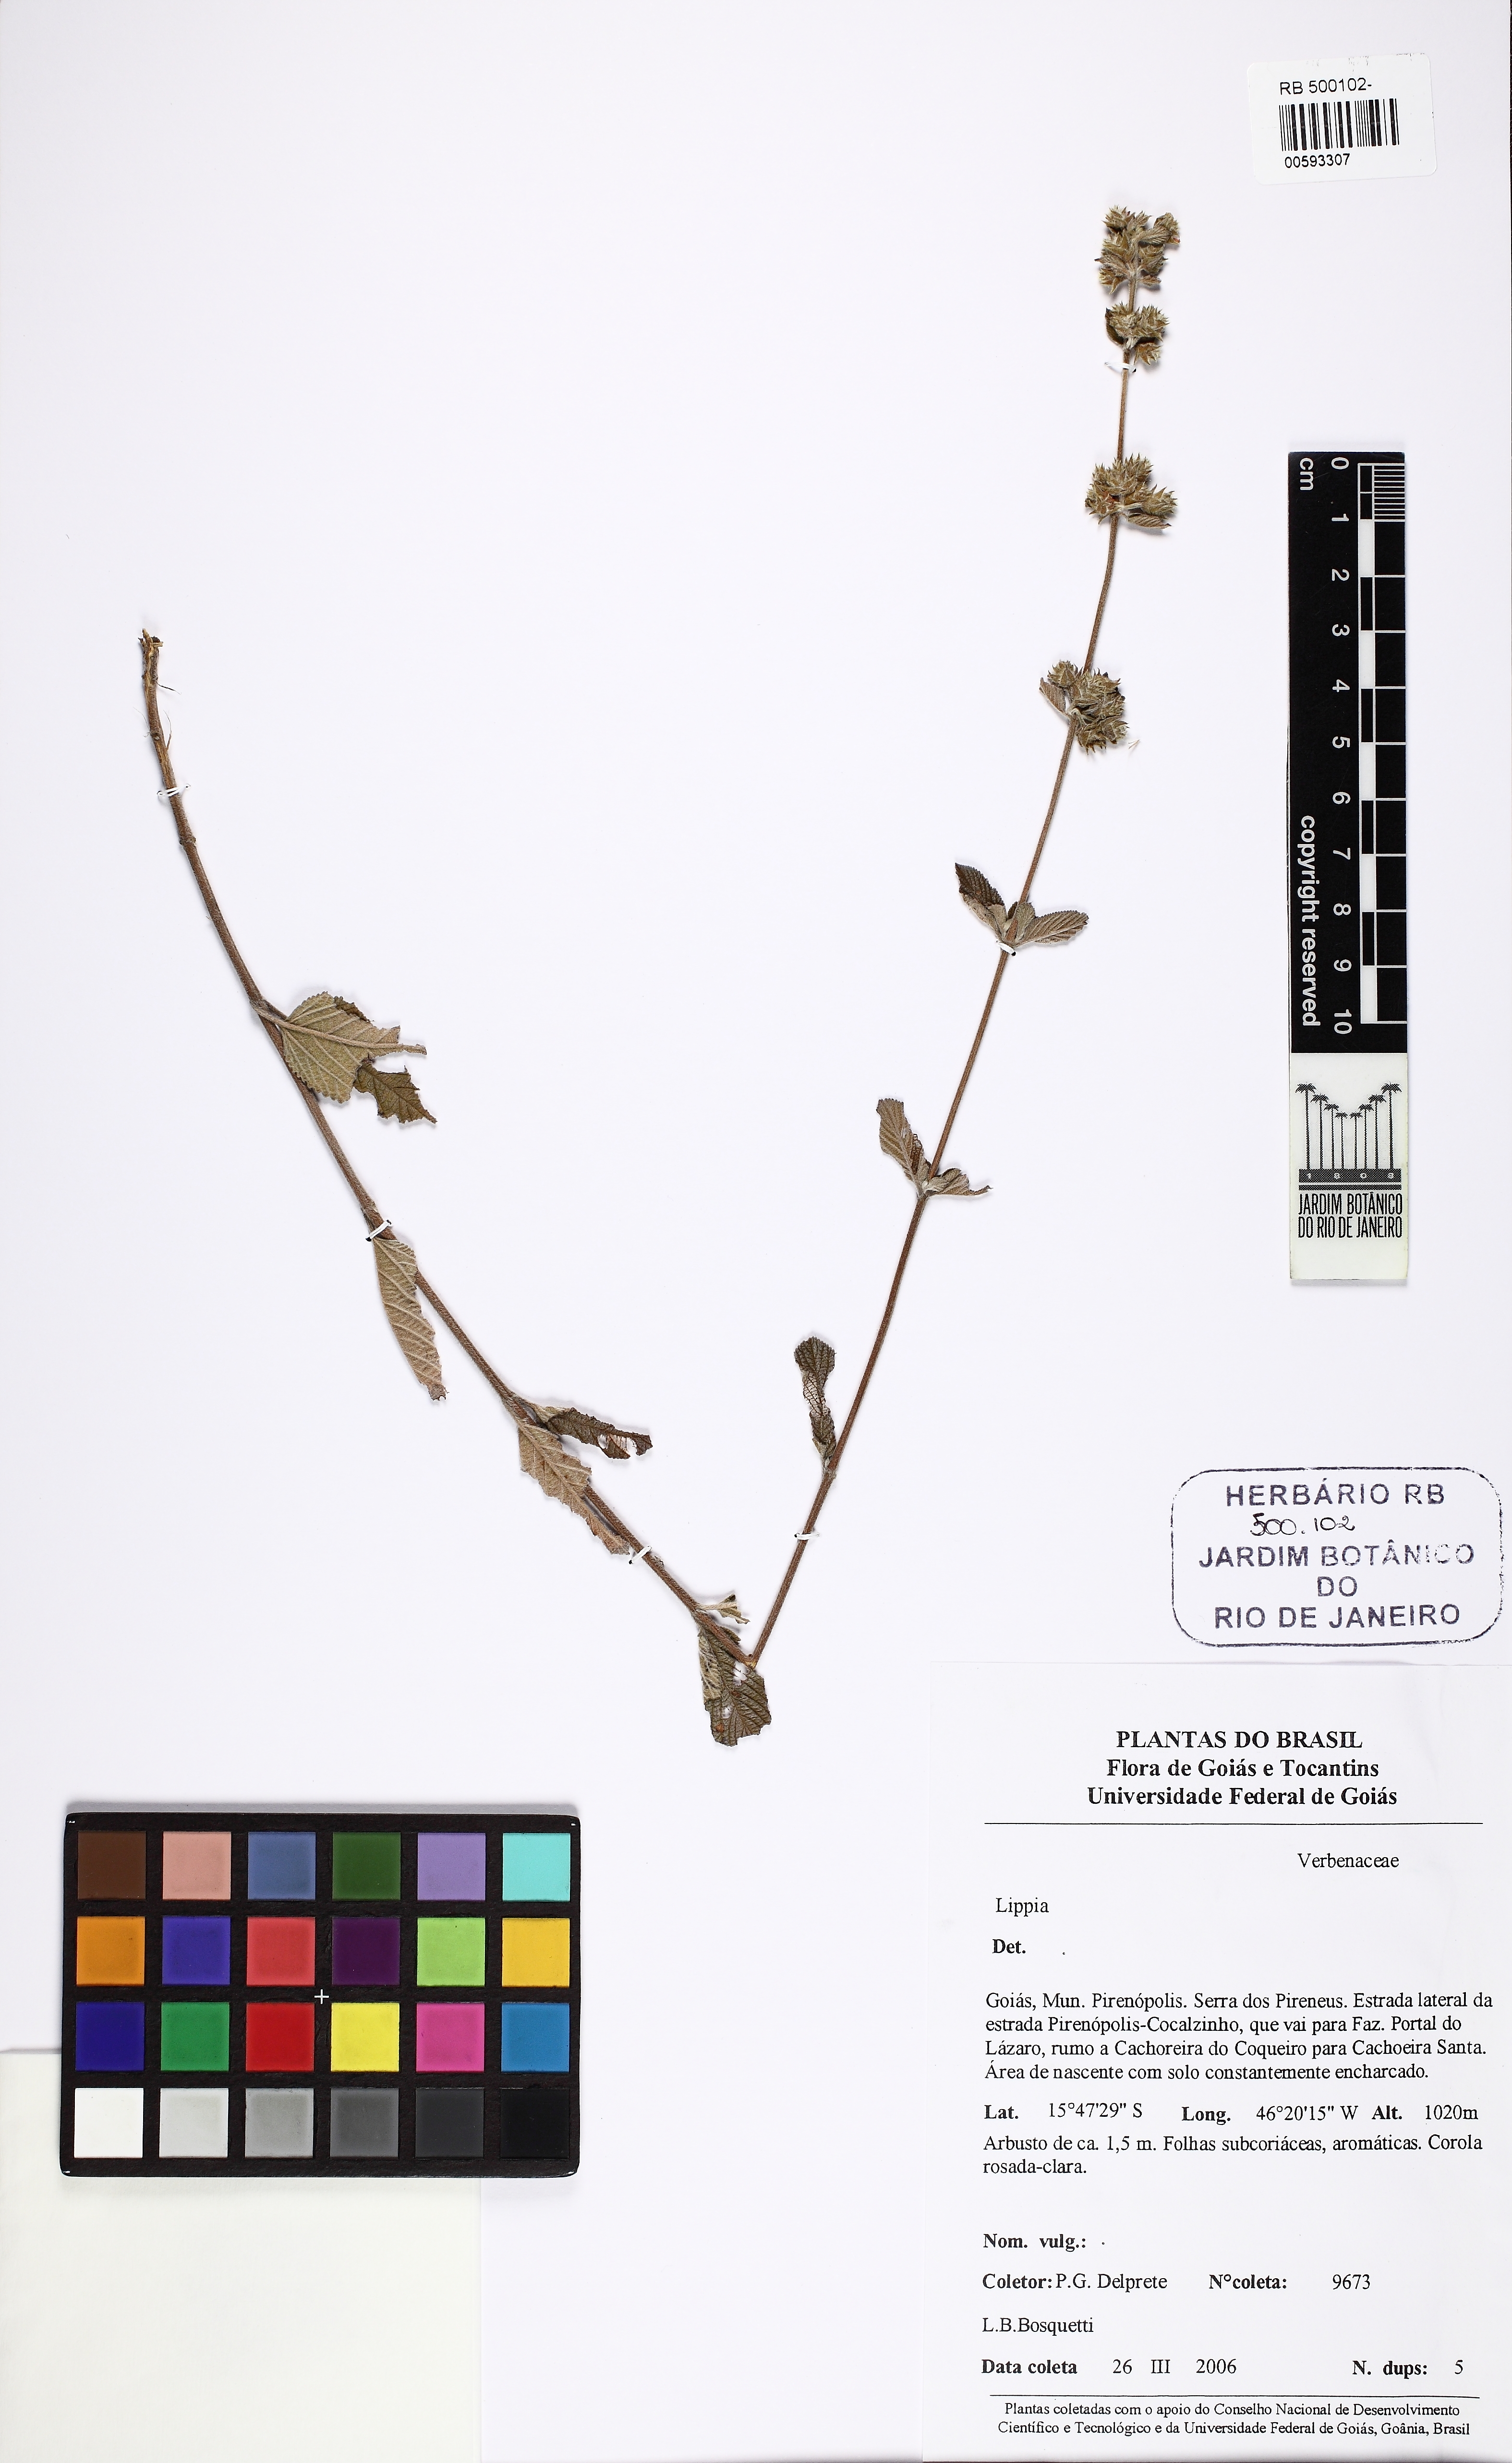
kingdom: Plantae
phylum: Tracheophyta
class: Magnoliopsida
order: Lamiales
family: Verbenaceae
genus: Lippia
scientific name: Lippia
